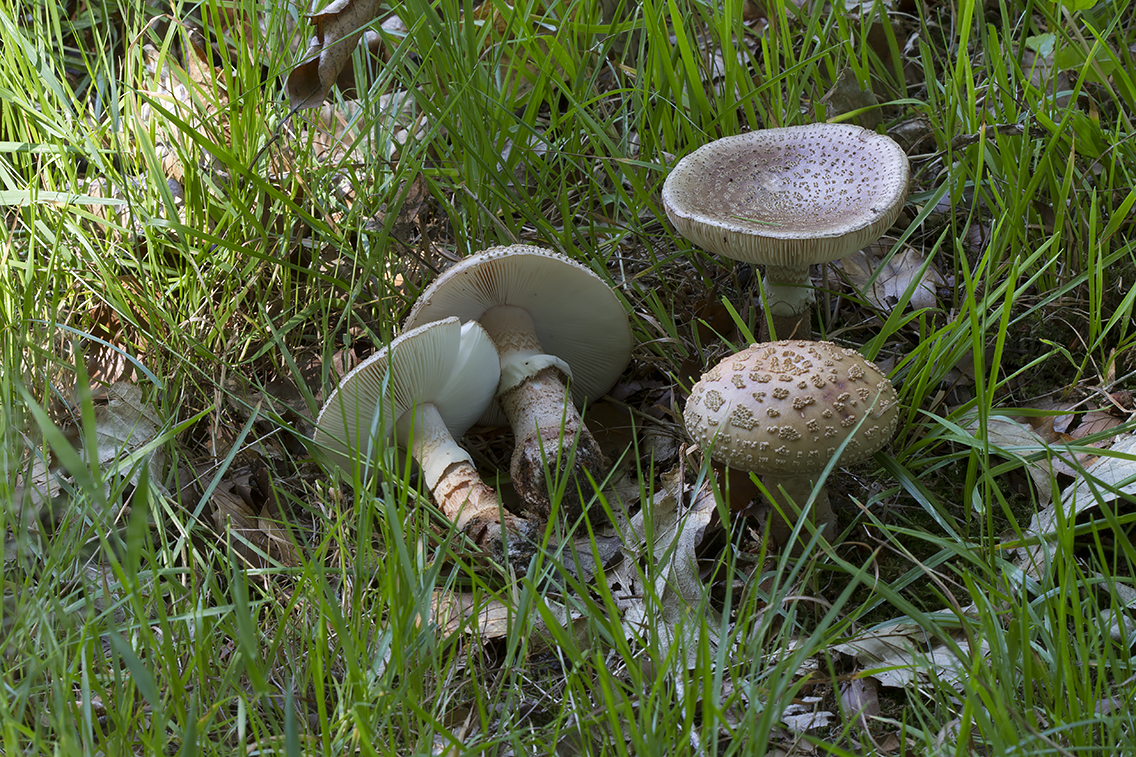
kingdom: Fungi
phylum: Basidiomycota
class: Agaricomycetes
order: Agaricales
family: Amanitaceae
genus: Amanita
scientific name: Amanita rubescens
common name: rødmende fluesvamp
